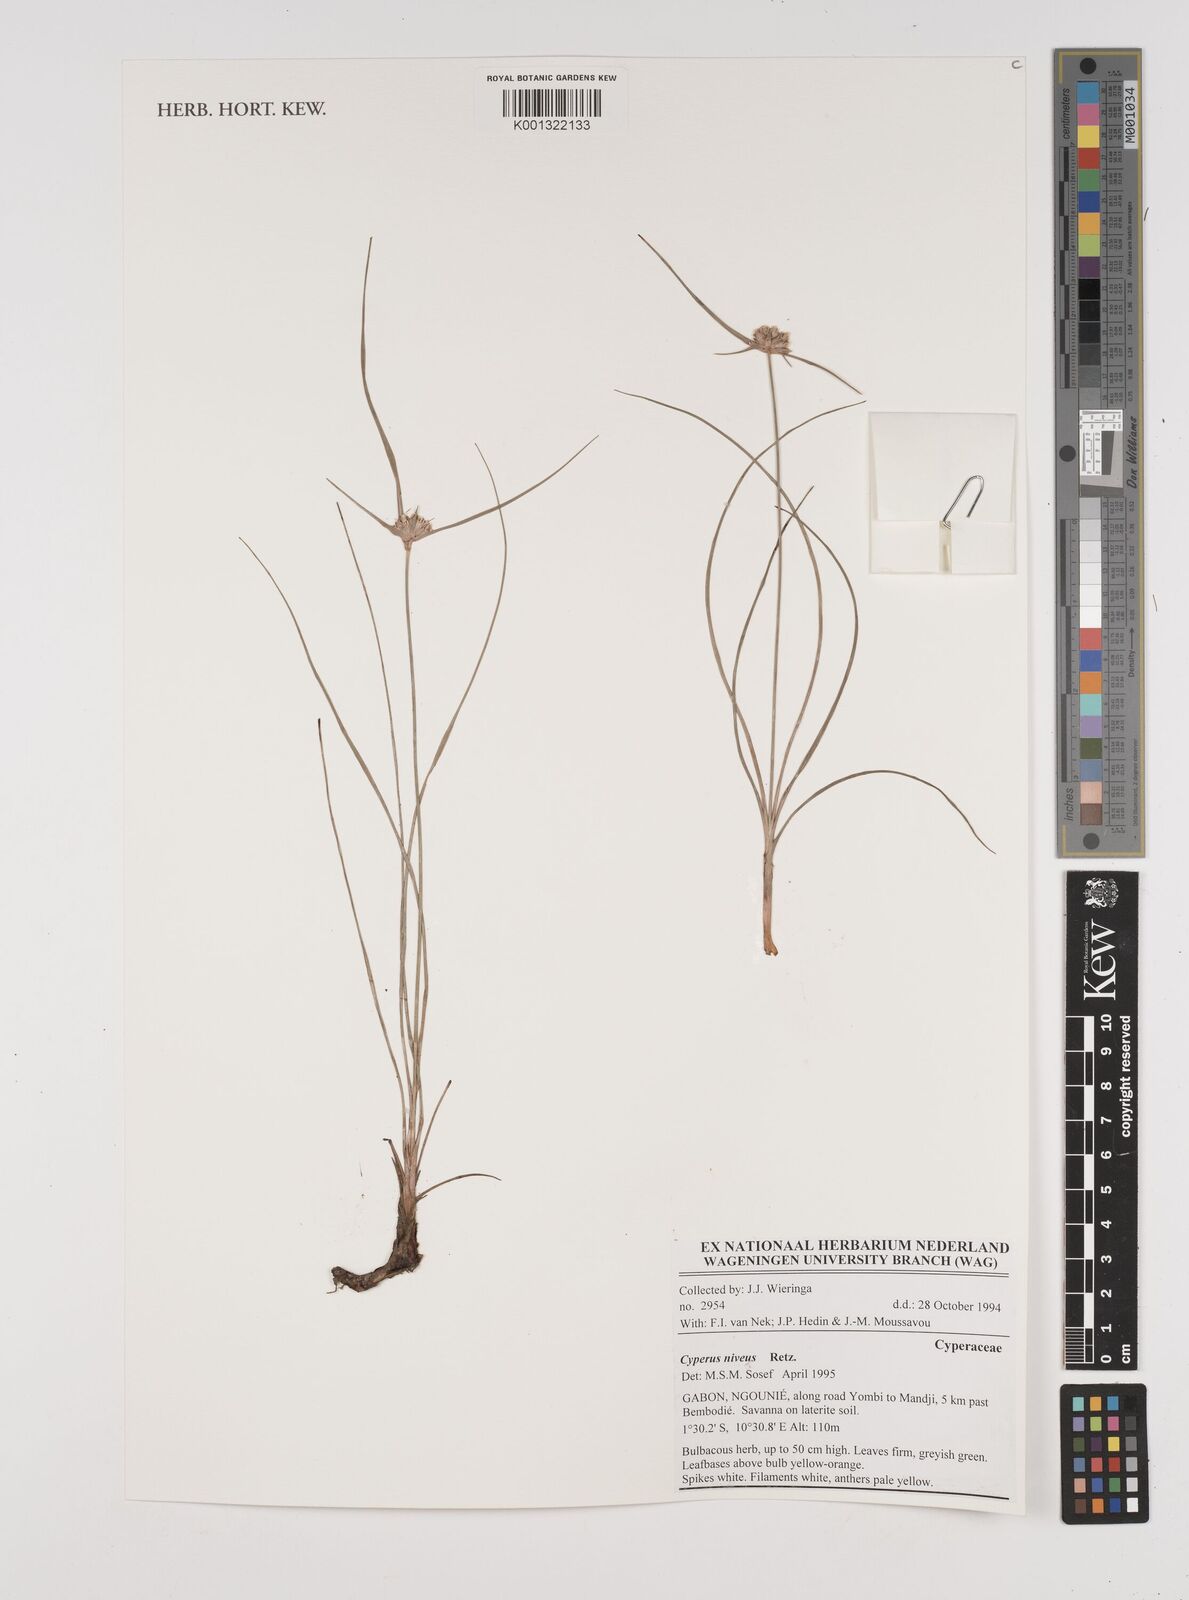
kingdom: Plantae
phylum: Tracheophyta
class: Liliopsida
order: Poales
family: Cyperaceae
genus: Cyperus
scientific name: Cyperus niveus
